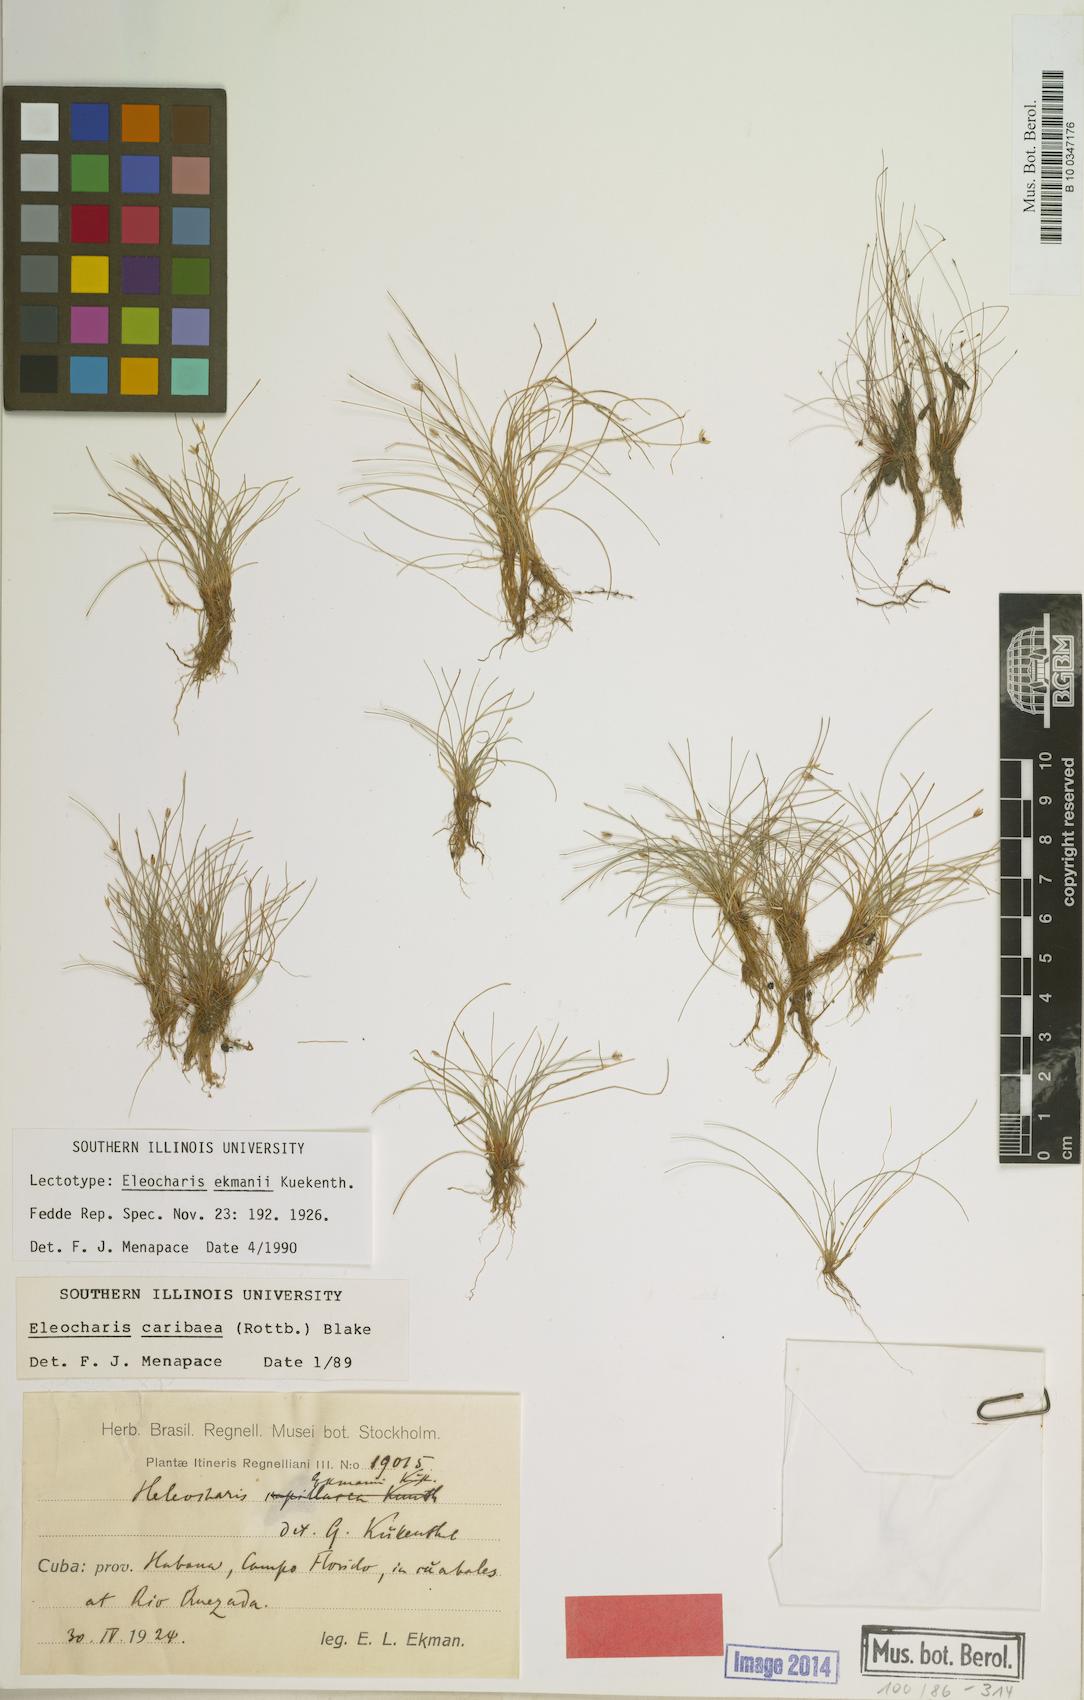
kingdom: Plantae
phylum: Tracheophyta
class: Liliopsida
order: Poales
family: Cyperaceae
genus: Eleocharis
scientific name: Eleocharis geniculata
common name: Canada spikesedge
